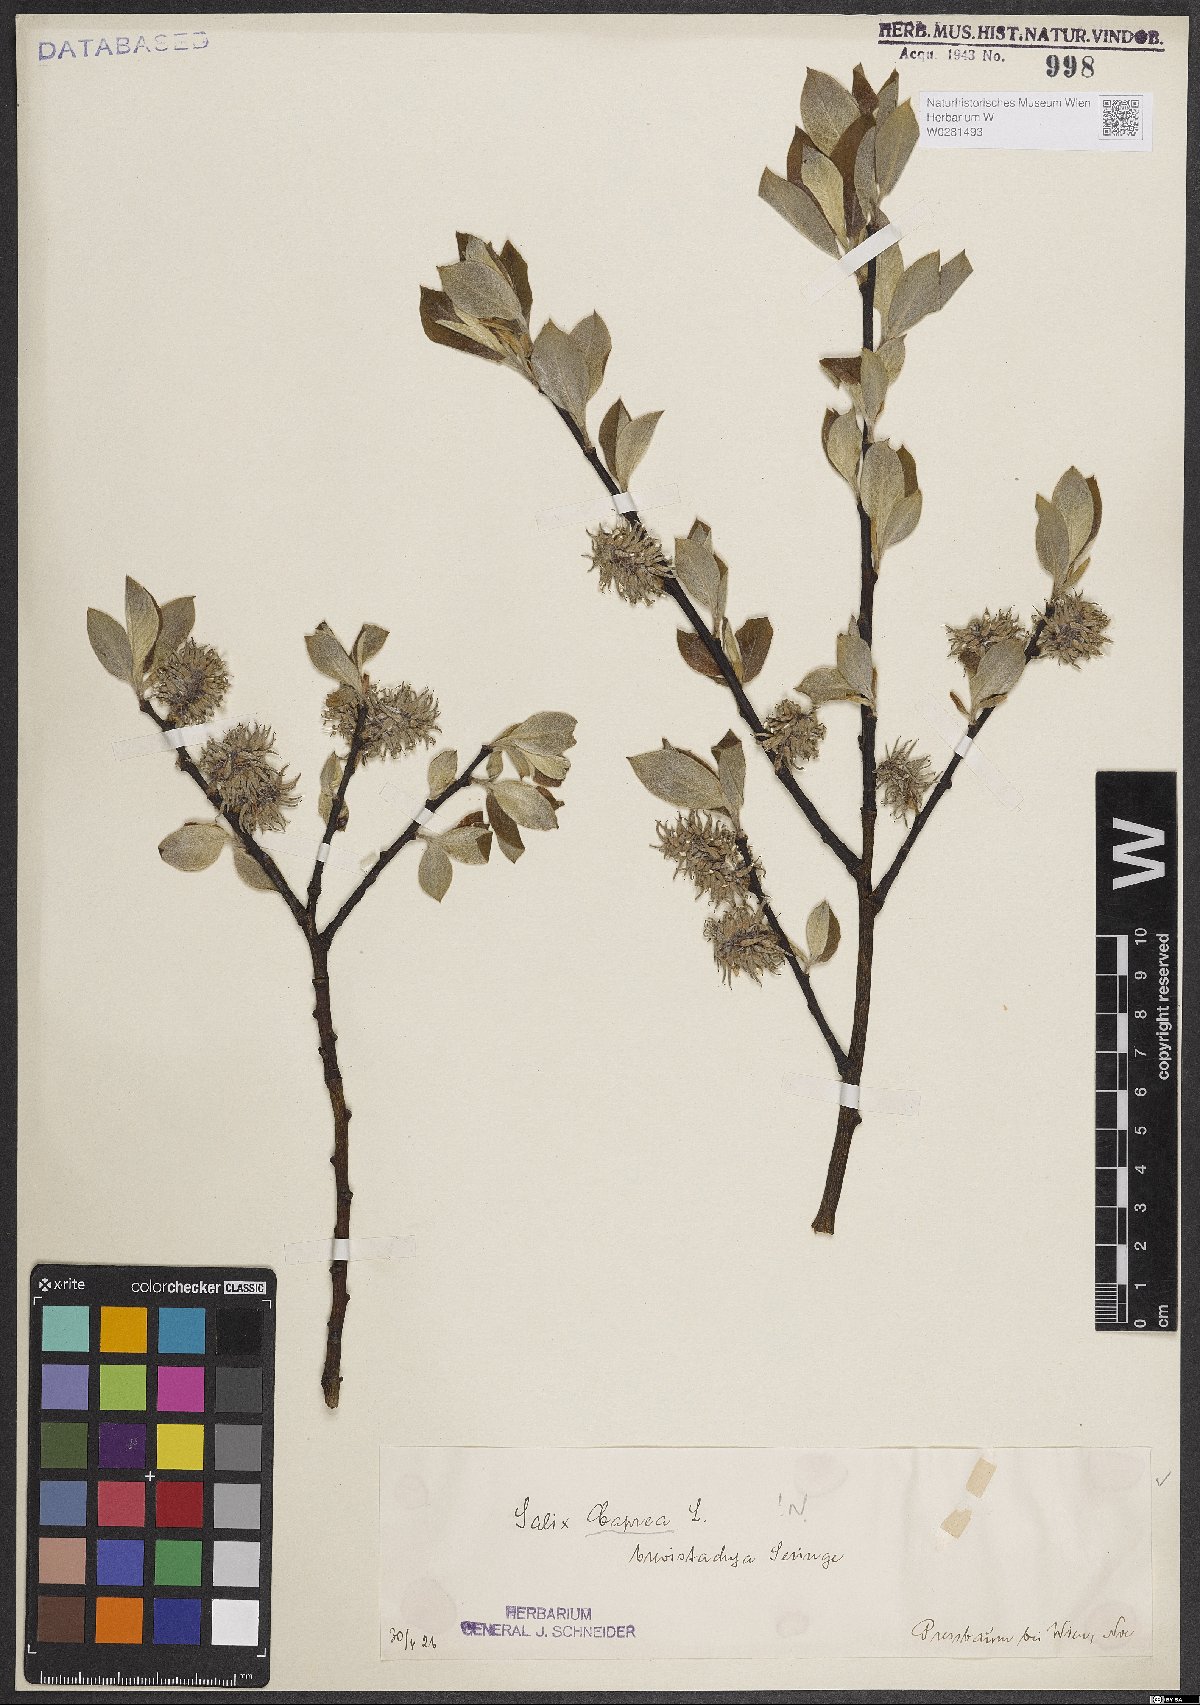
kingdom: Plantae
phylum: Tracheophyta
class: Magnoliopsida
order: Malpighiales
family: Salicaceae
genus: Salix
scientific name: Salix caprea
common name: Goat willow
